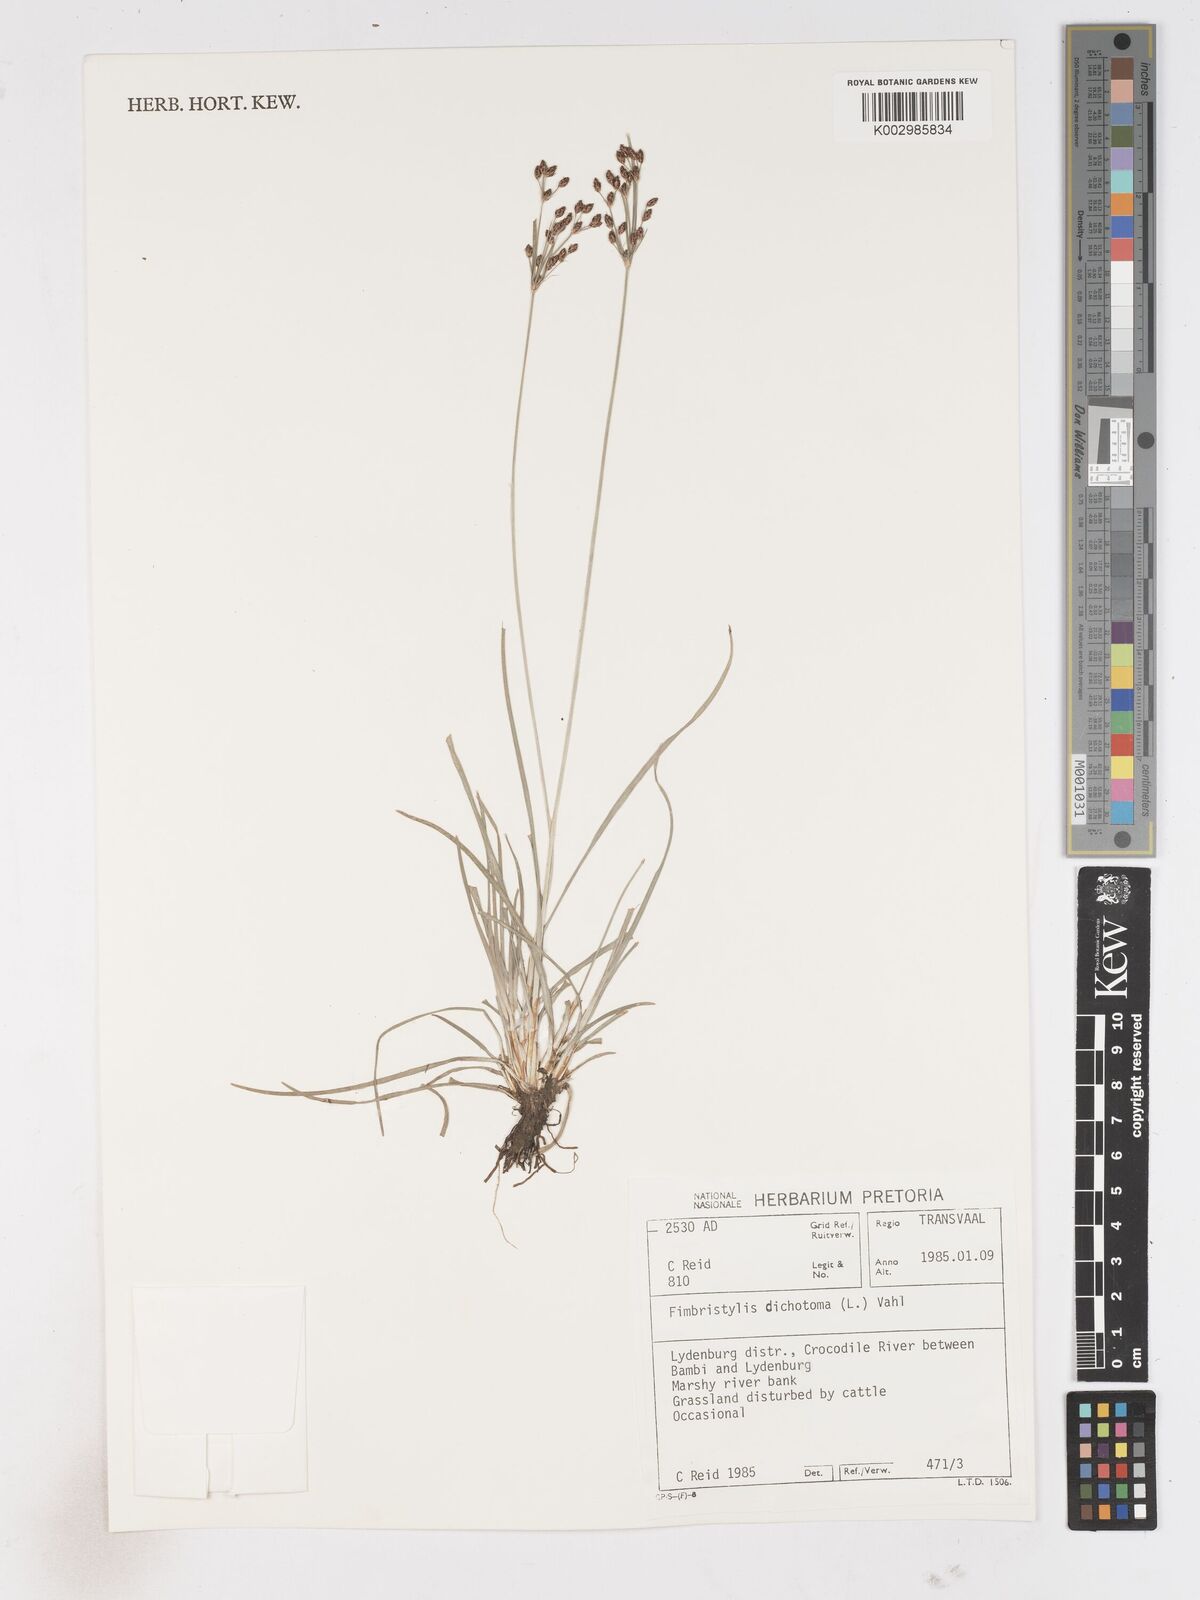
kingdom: Plantae
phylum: Tracheophyta
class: Liliopsida
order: Poales
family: Cyperaceae
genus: Fimbristylis
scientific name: Fimbristylis dichotoma
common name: Forked fimbry
